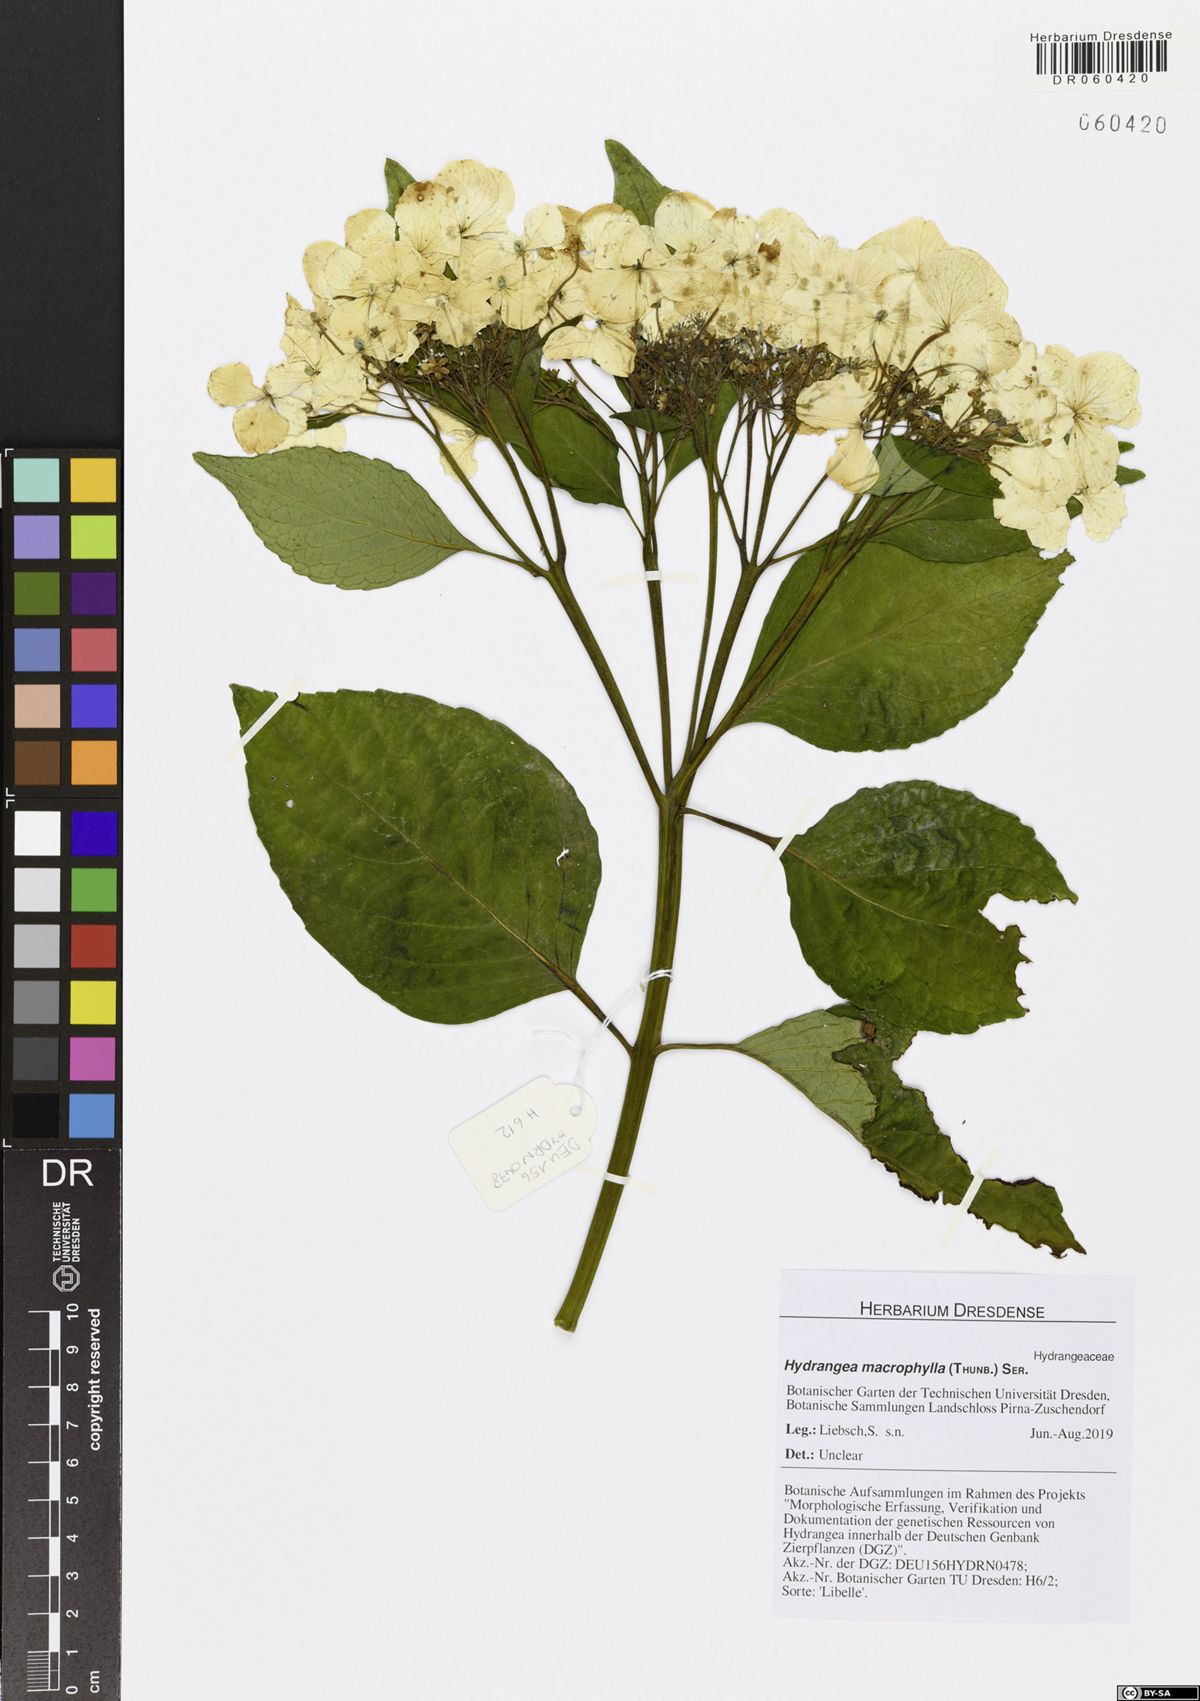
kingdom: Plantae
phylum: Tracheophyta
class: Magnoliopsida
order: Cornales
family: Hydrangeaceae
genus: Hydrangea
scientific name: Hydrangea macrophylla
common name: Hydrangea
